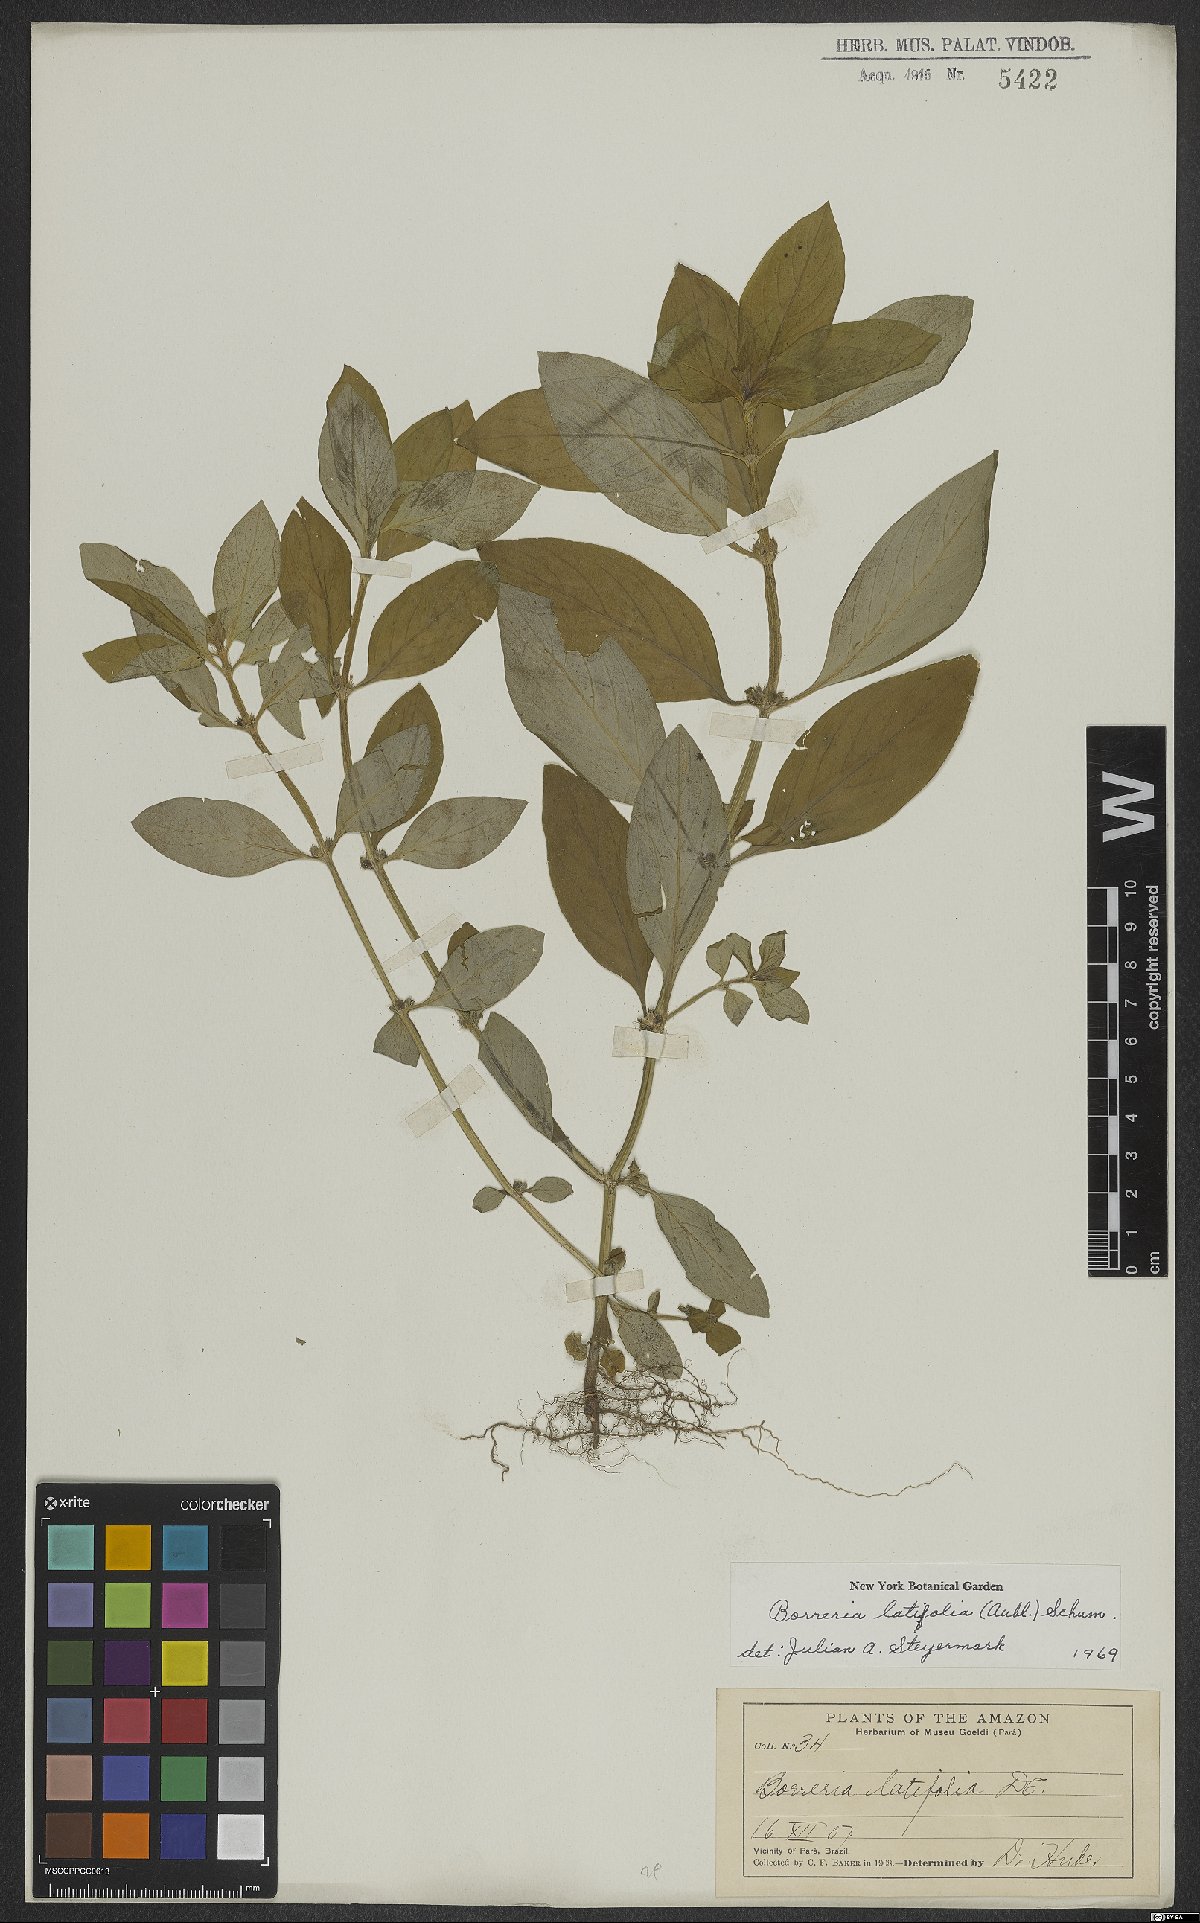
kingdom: Plantae
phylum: Tracheophyta
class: Magnoliopsida
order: Gentianales
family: Rubiaceae
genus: Spermacoce
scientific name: Spermacoce latifolia
